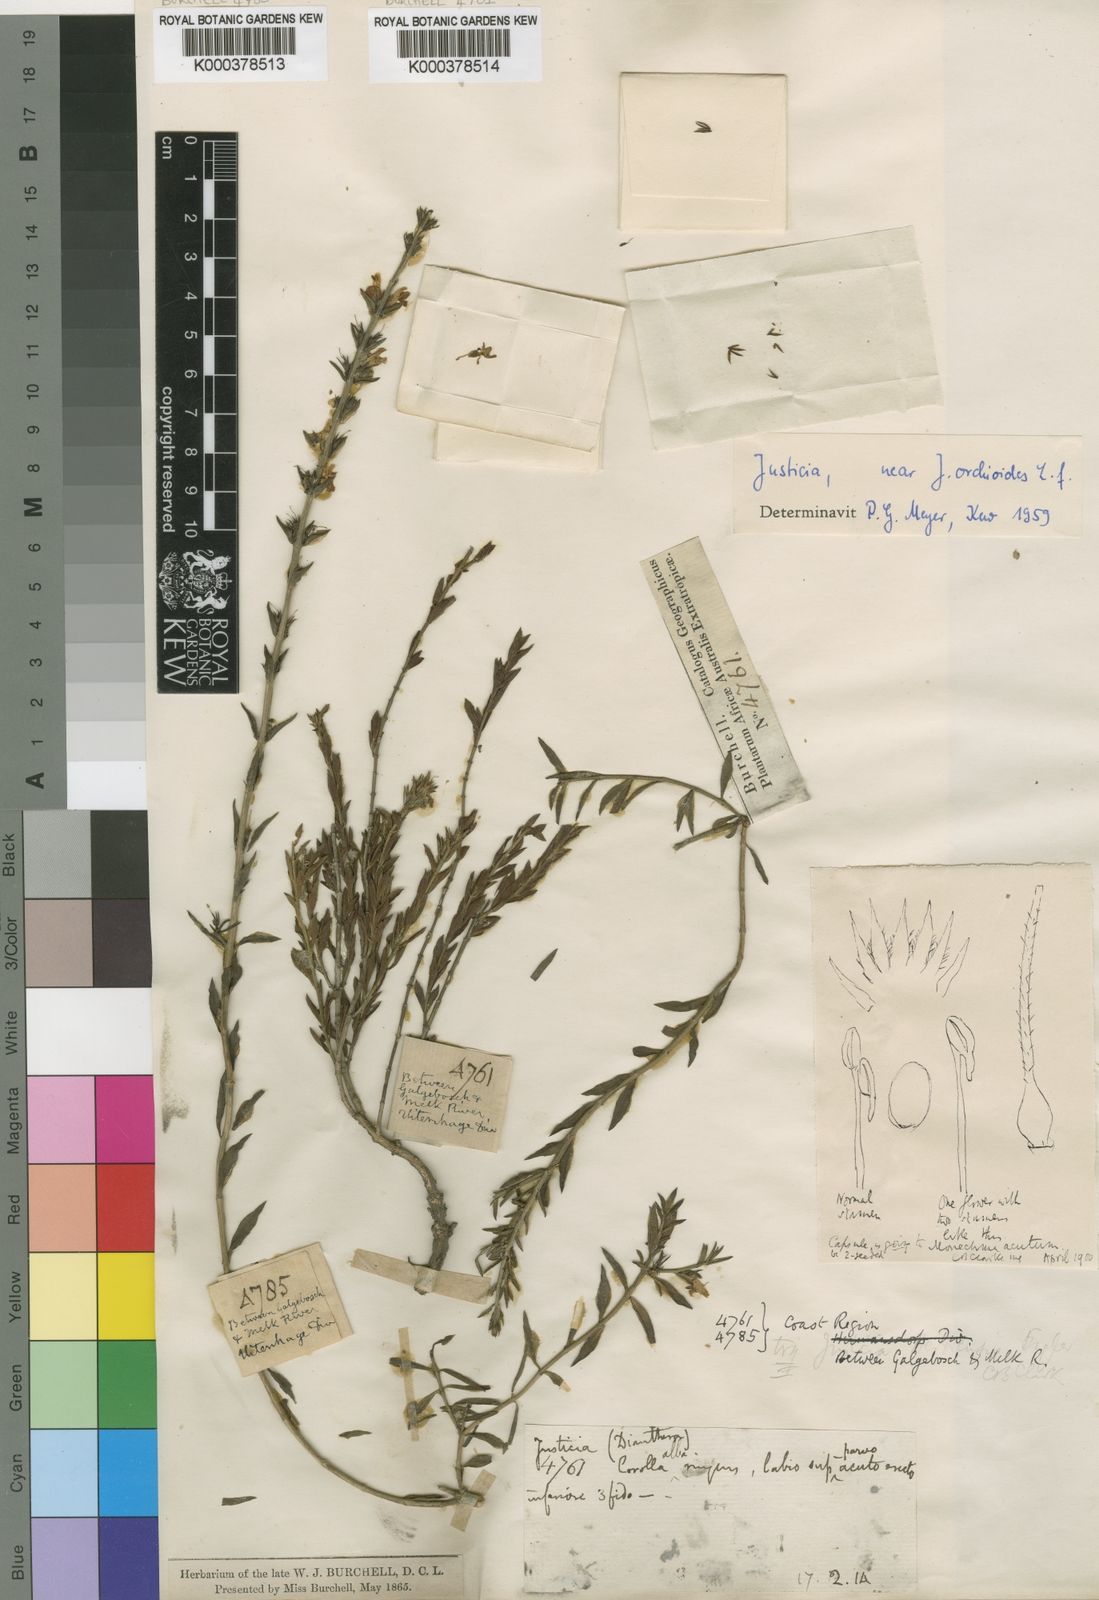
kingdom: Plantae
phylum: Tracheophyta
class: Magnoliopsida
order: Lamiales
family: Acanthaceae
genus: Justicia
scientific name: Justicia orchioides
